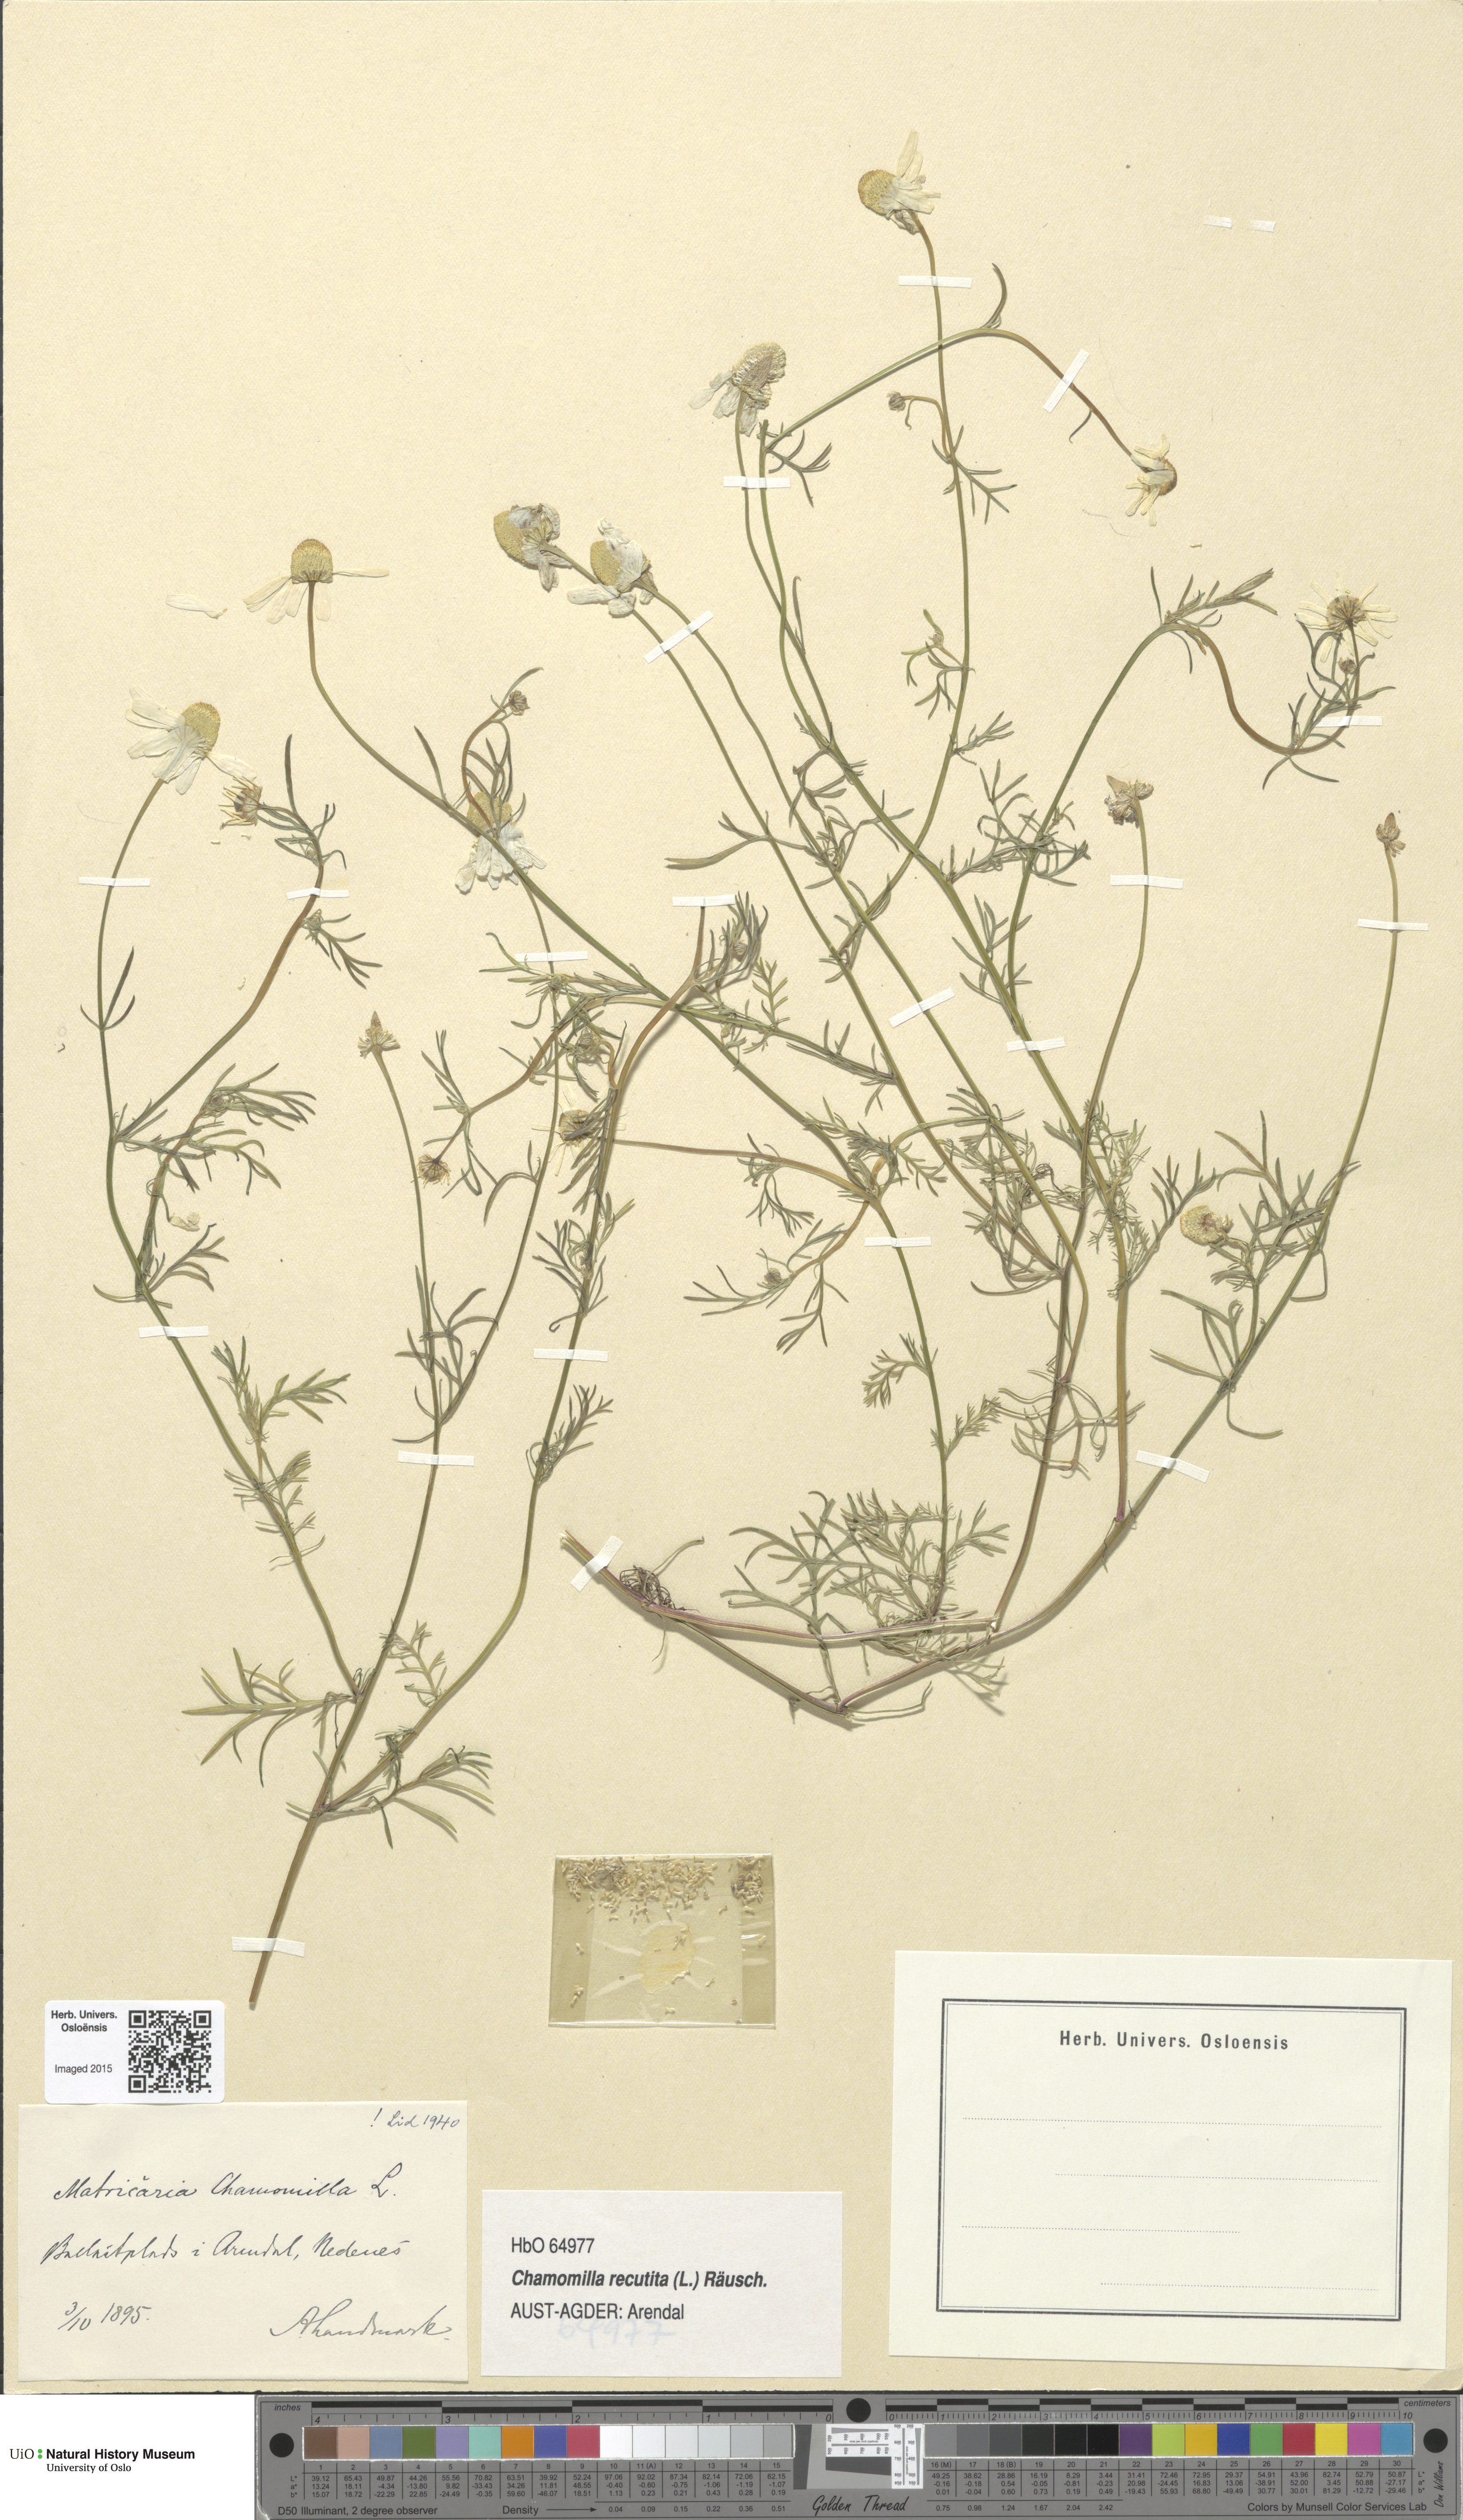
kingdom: Plantae
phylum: Tracheophyta
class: Magnoliopsida
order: Asterales
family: Asteraceae
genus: Matricaria
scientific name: Matricaria chamomilla
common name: Scented mayweed
